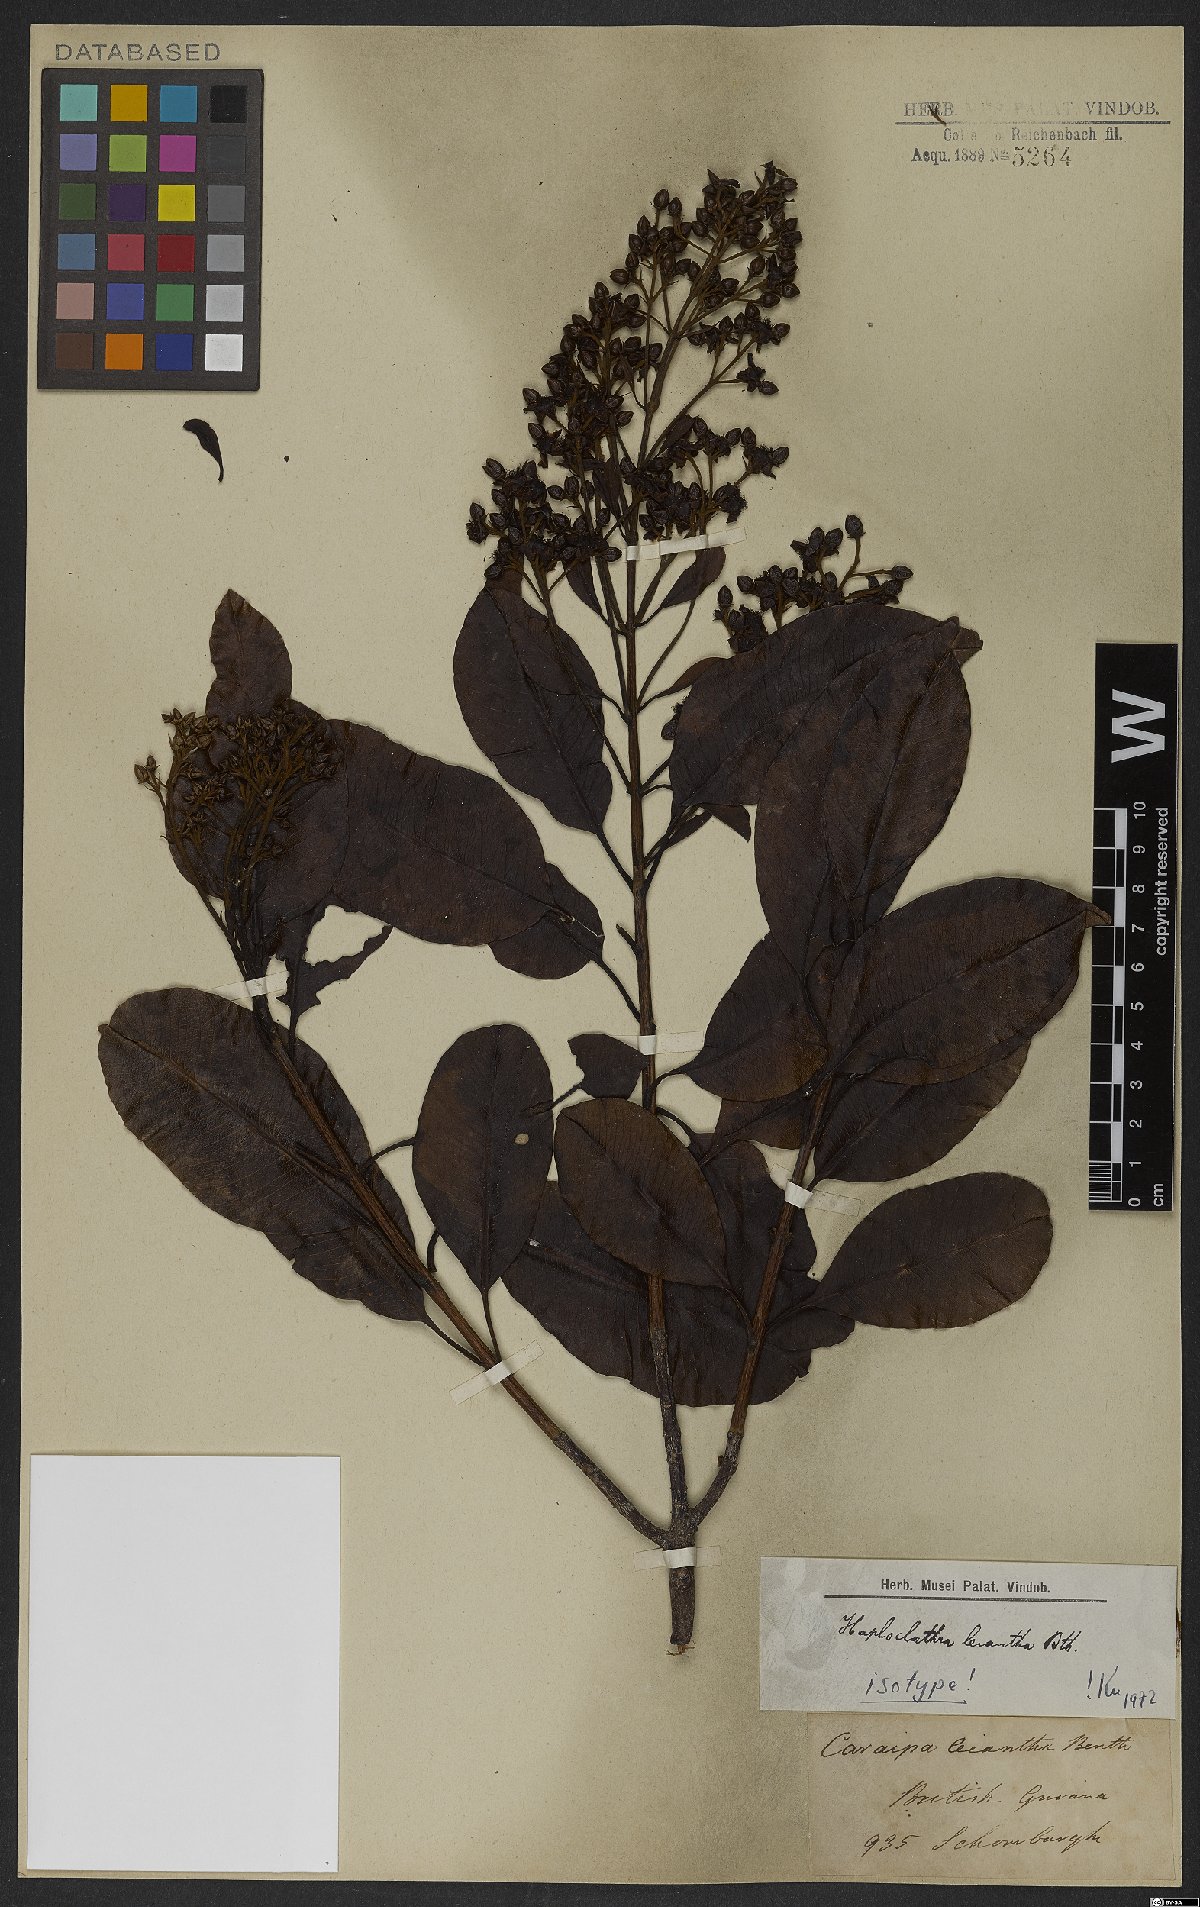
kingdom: Plantae
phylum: Tracheophyta
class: Magnoliopsida
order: Malpighiales
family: Calophyllaceae
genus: Haploclathra
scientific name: Haploclathra leiantha
